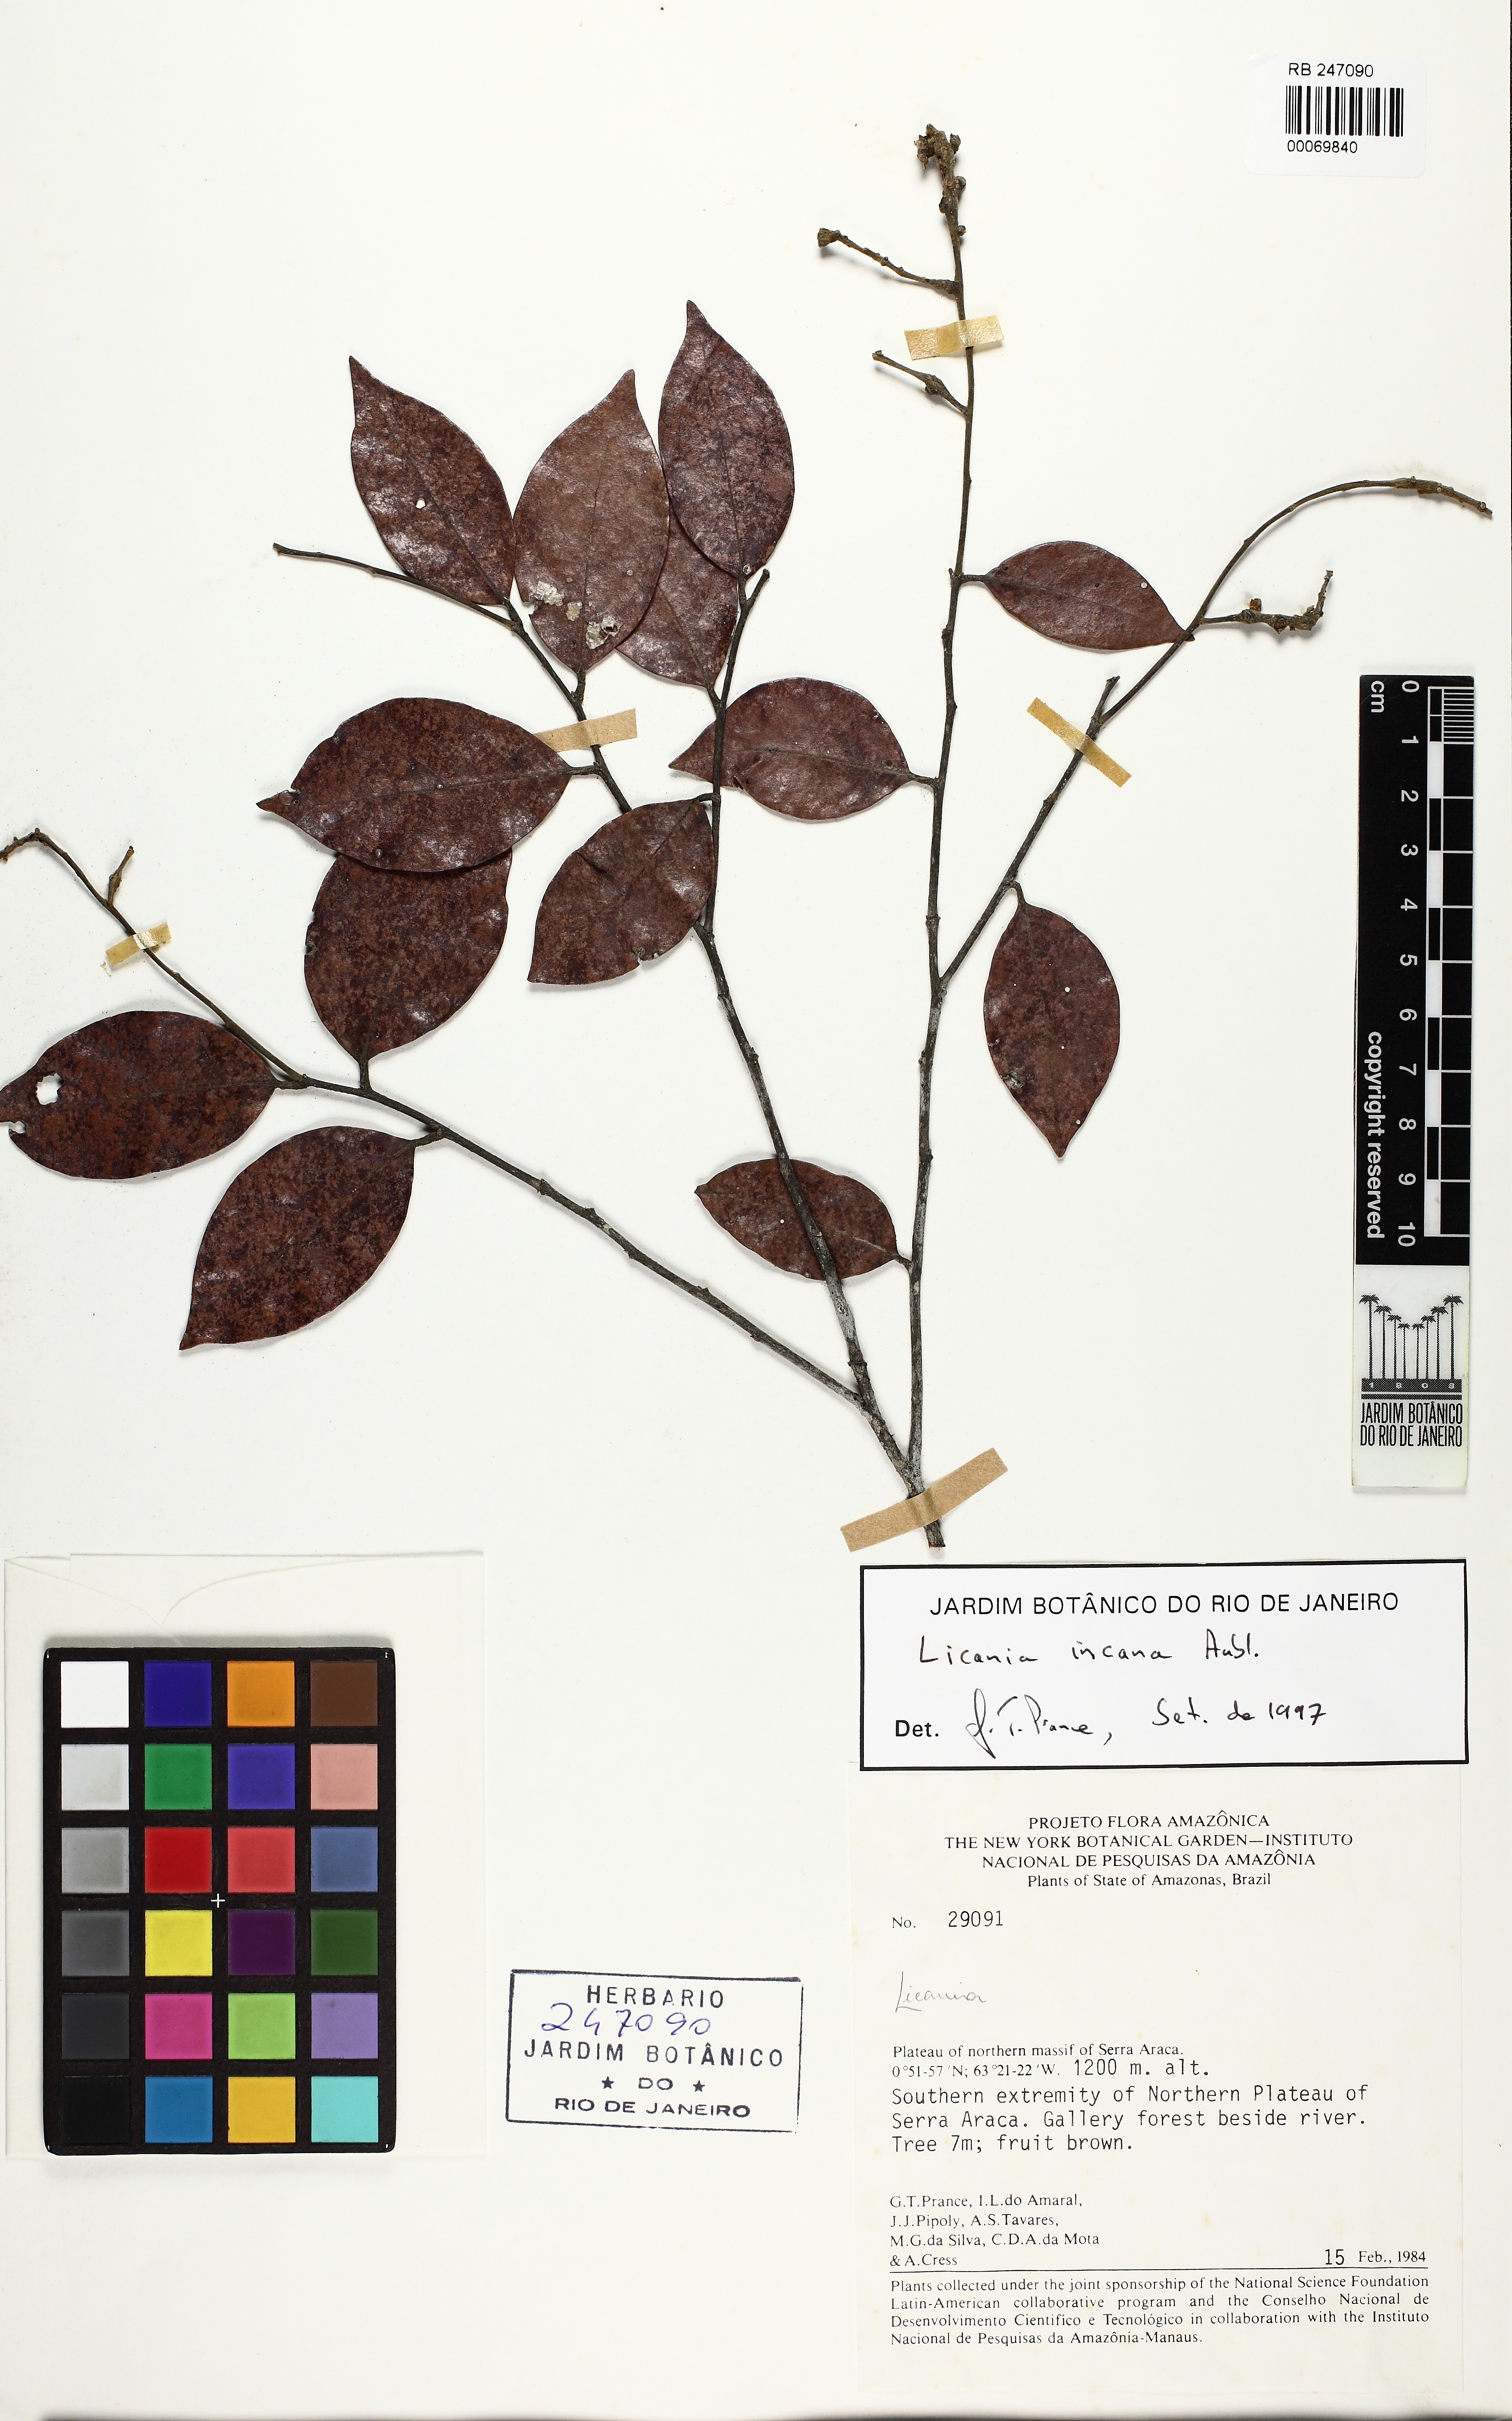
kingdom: Plantae
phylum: Tracheophyta
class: Magnoliopsida
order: Malpighiales
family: Chrysobalanaceae
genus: Licania
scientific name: Licania incana
